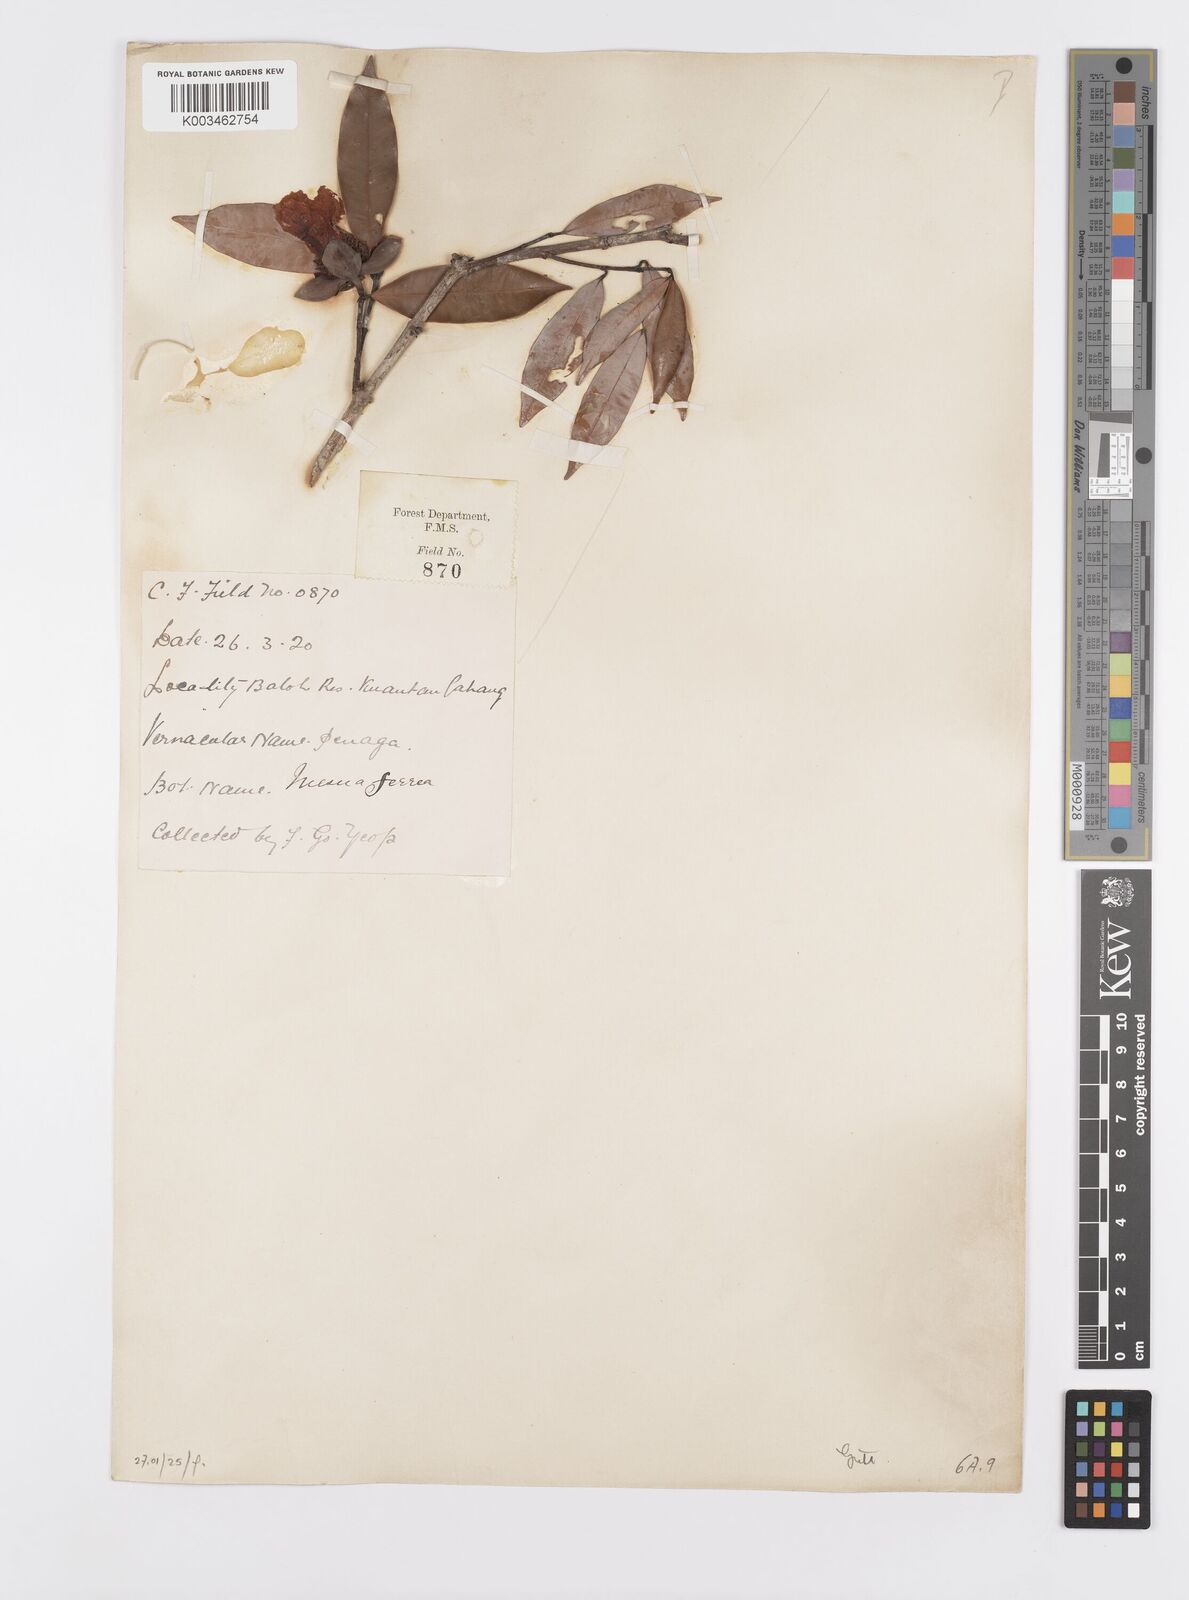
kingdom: Plantae
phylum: Tracheophyta
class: Magnoliopsida
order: Malpighiales
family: Calophyllaceae
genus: Mesua
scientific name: Mesua ferrea
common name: Mesua
